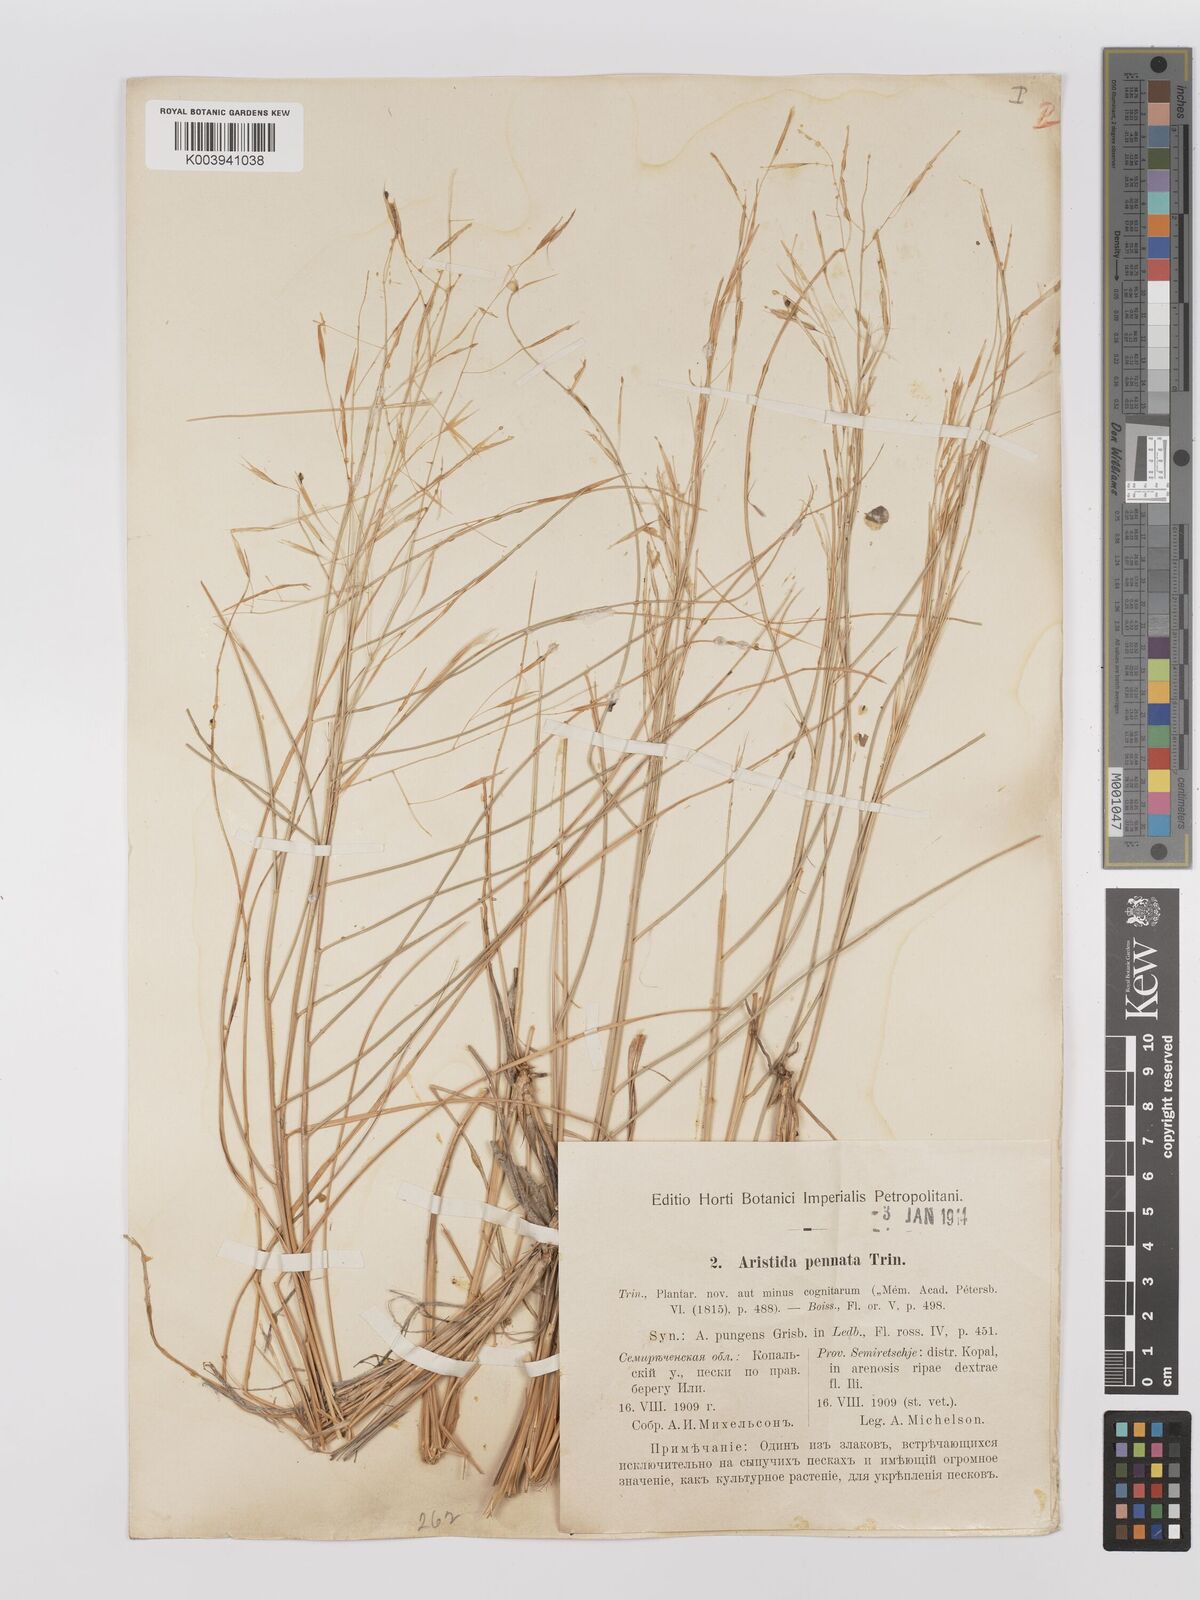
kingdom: Plantae
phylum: Tracheophyta
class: Liliopsida
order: Poales
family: Poaceae
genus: Stipagrostis
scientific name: Stipagrostis pungens
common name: Three-awn grass
